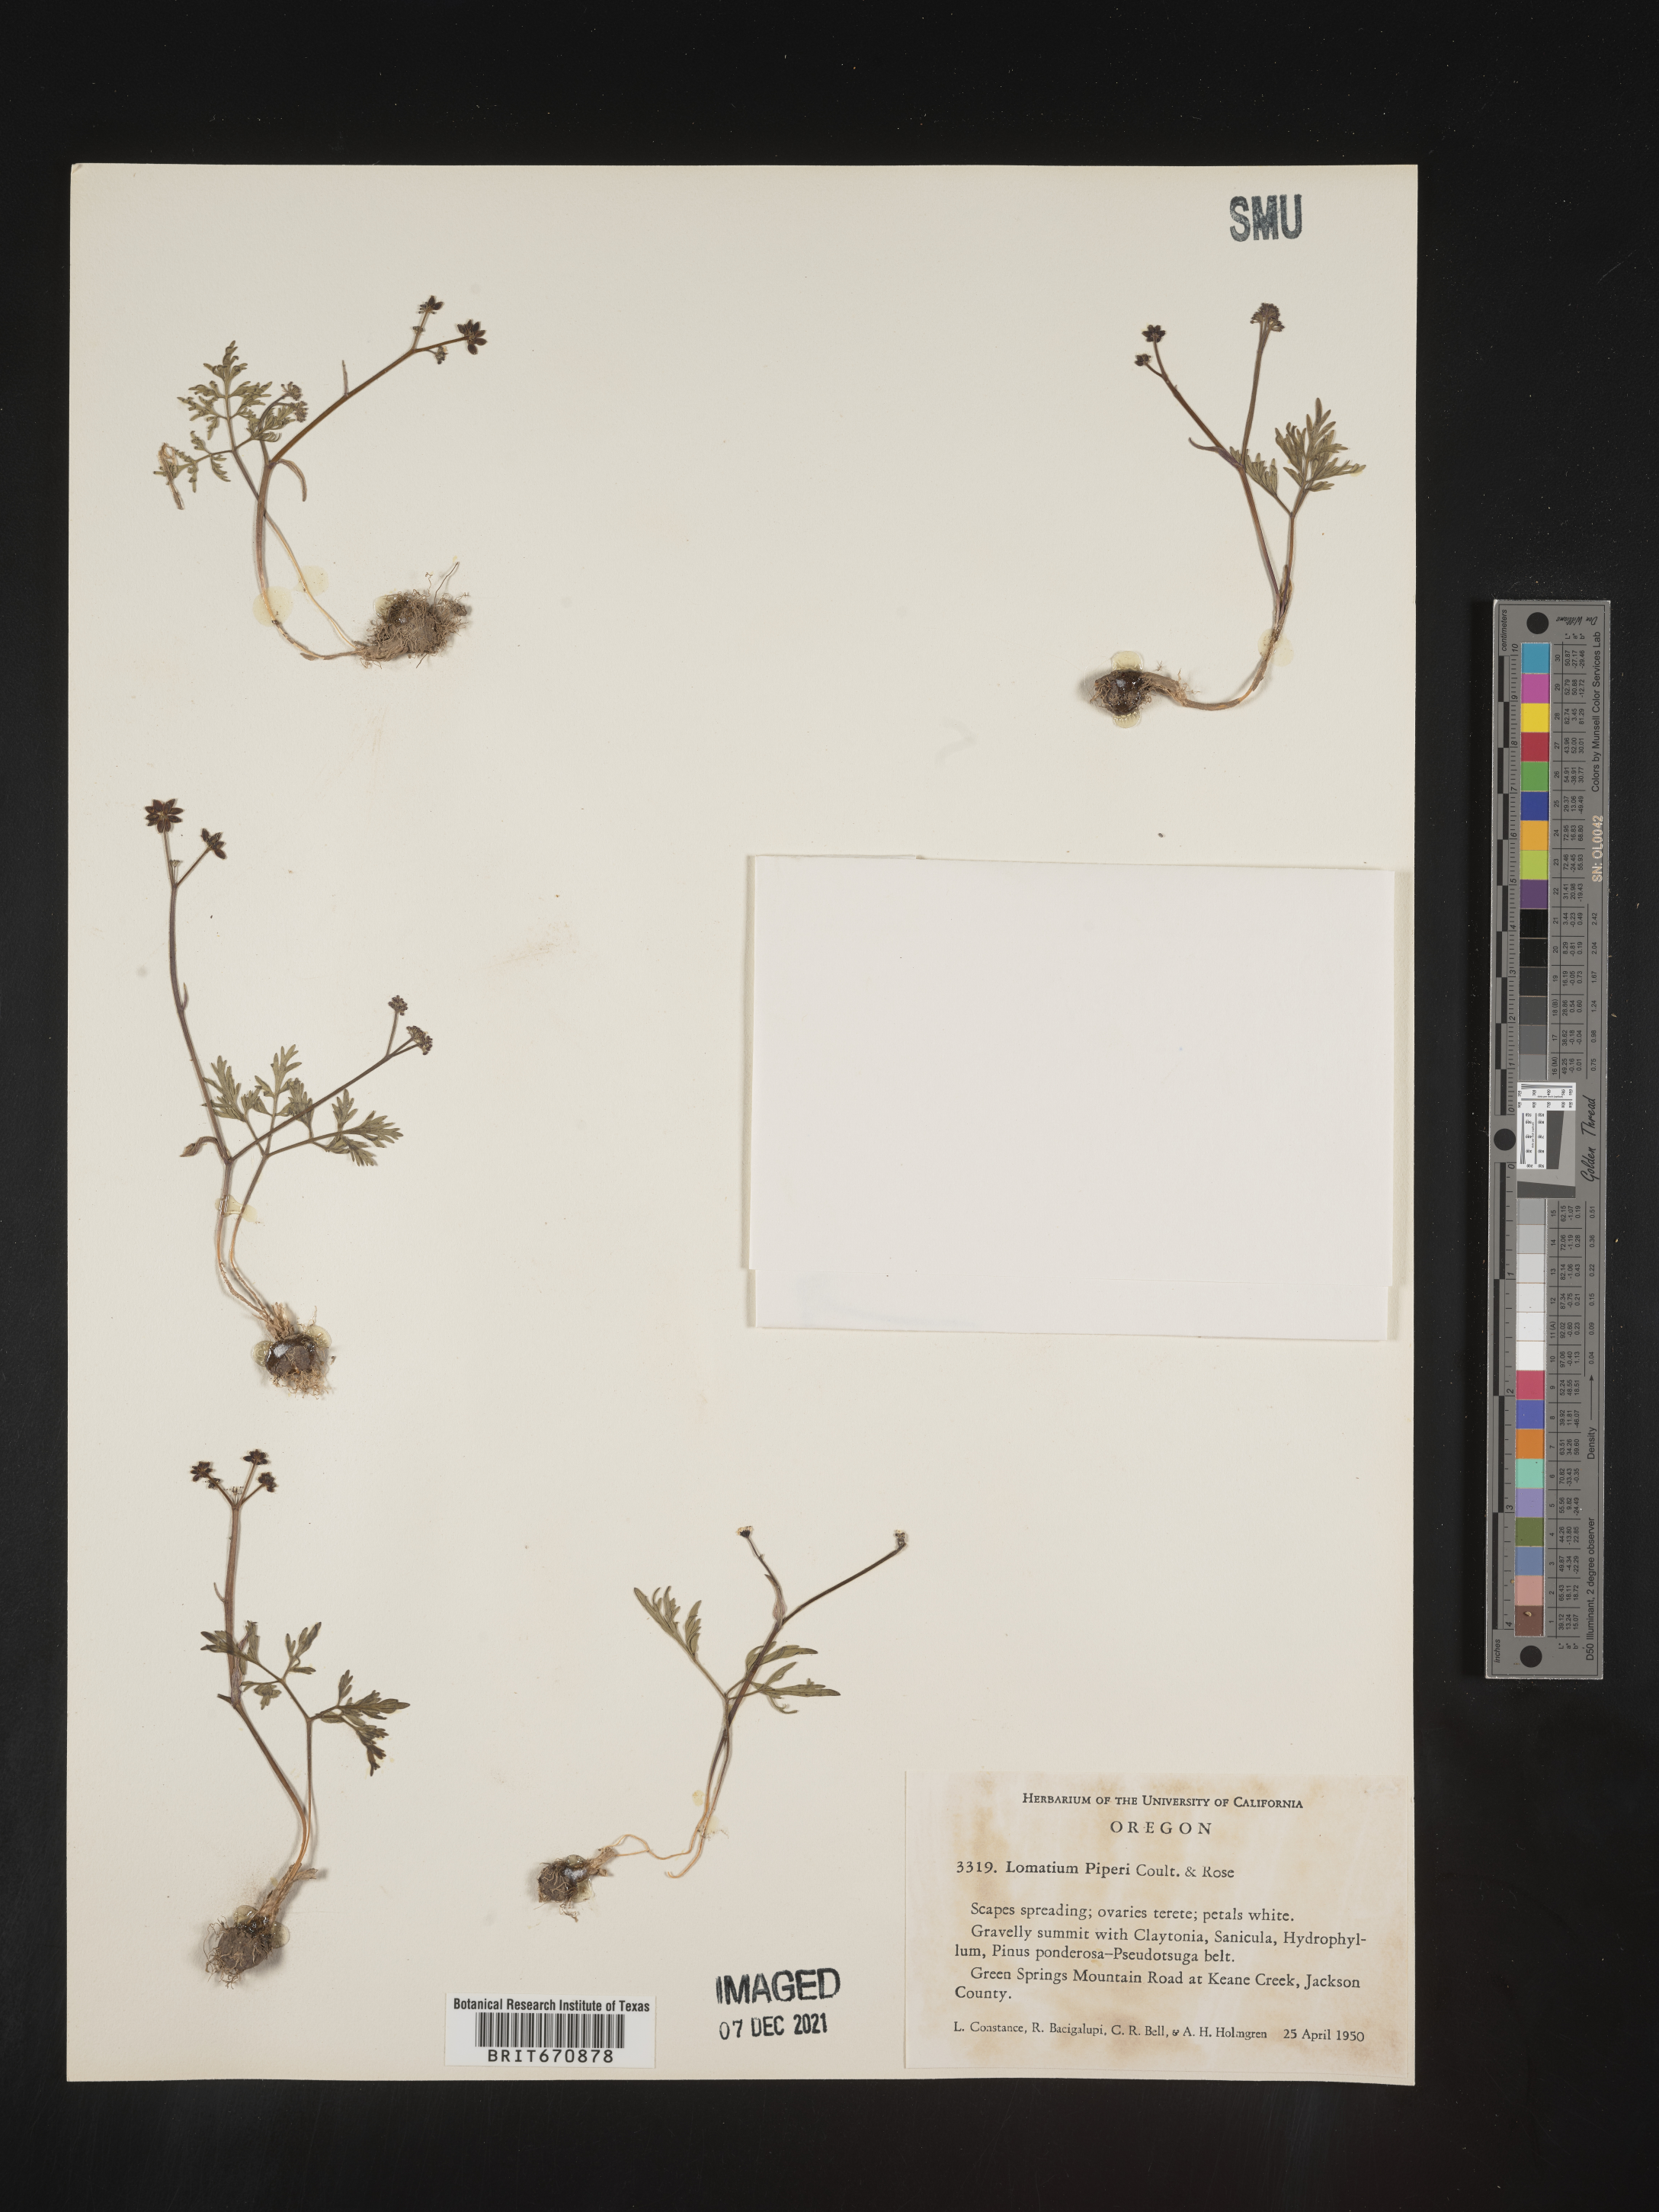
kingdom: Plantae
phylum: Tracheophyta
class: Magnoliopsida
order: Apiales
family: Apiaceae
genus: Lomatium
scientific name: Lomatium
